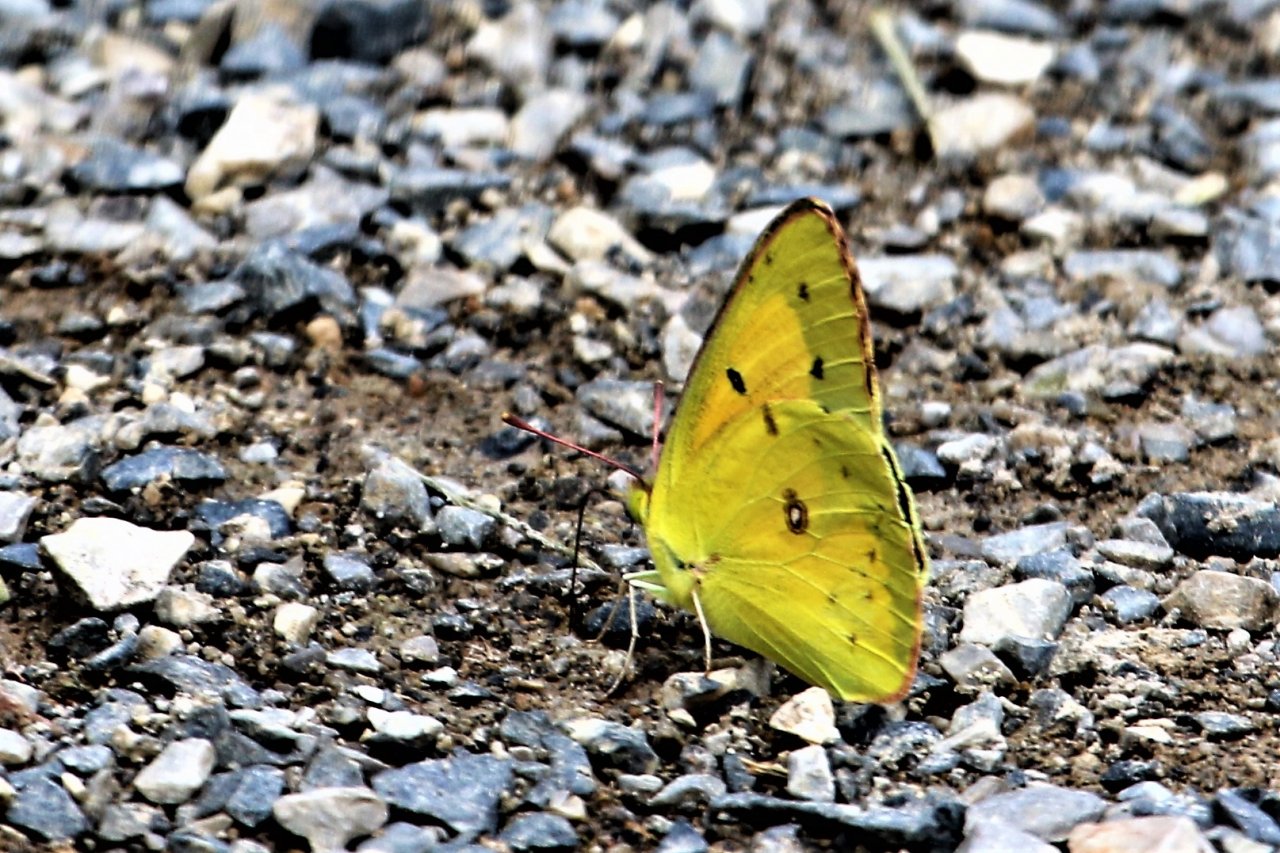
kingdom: Animalia
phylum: Arthropoda
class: Insecta
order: Lepidoptera
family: Pieridae
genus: Colias
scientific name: Colias eurytheme
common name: Orange Sulphur
